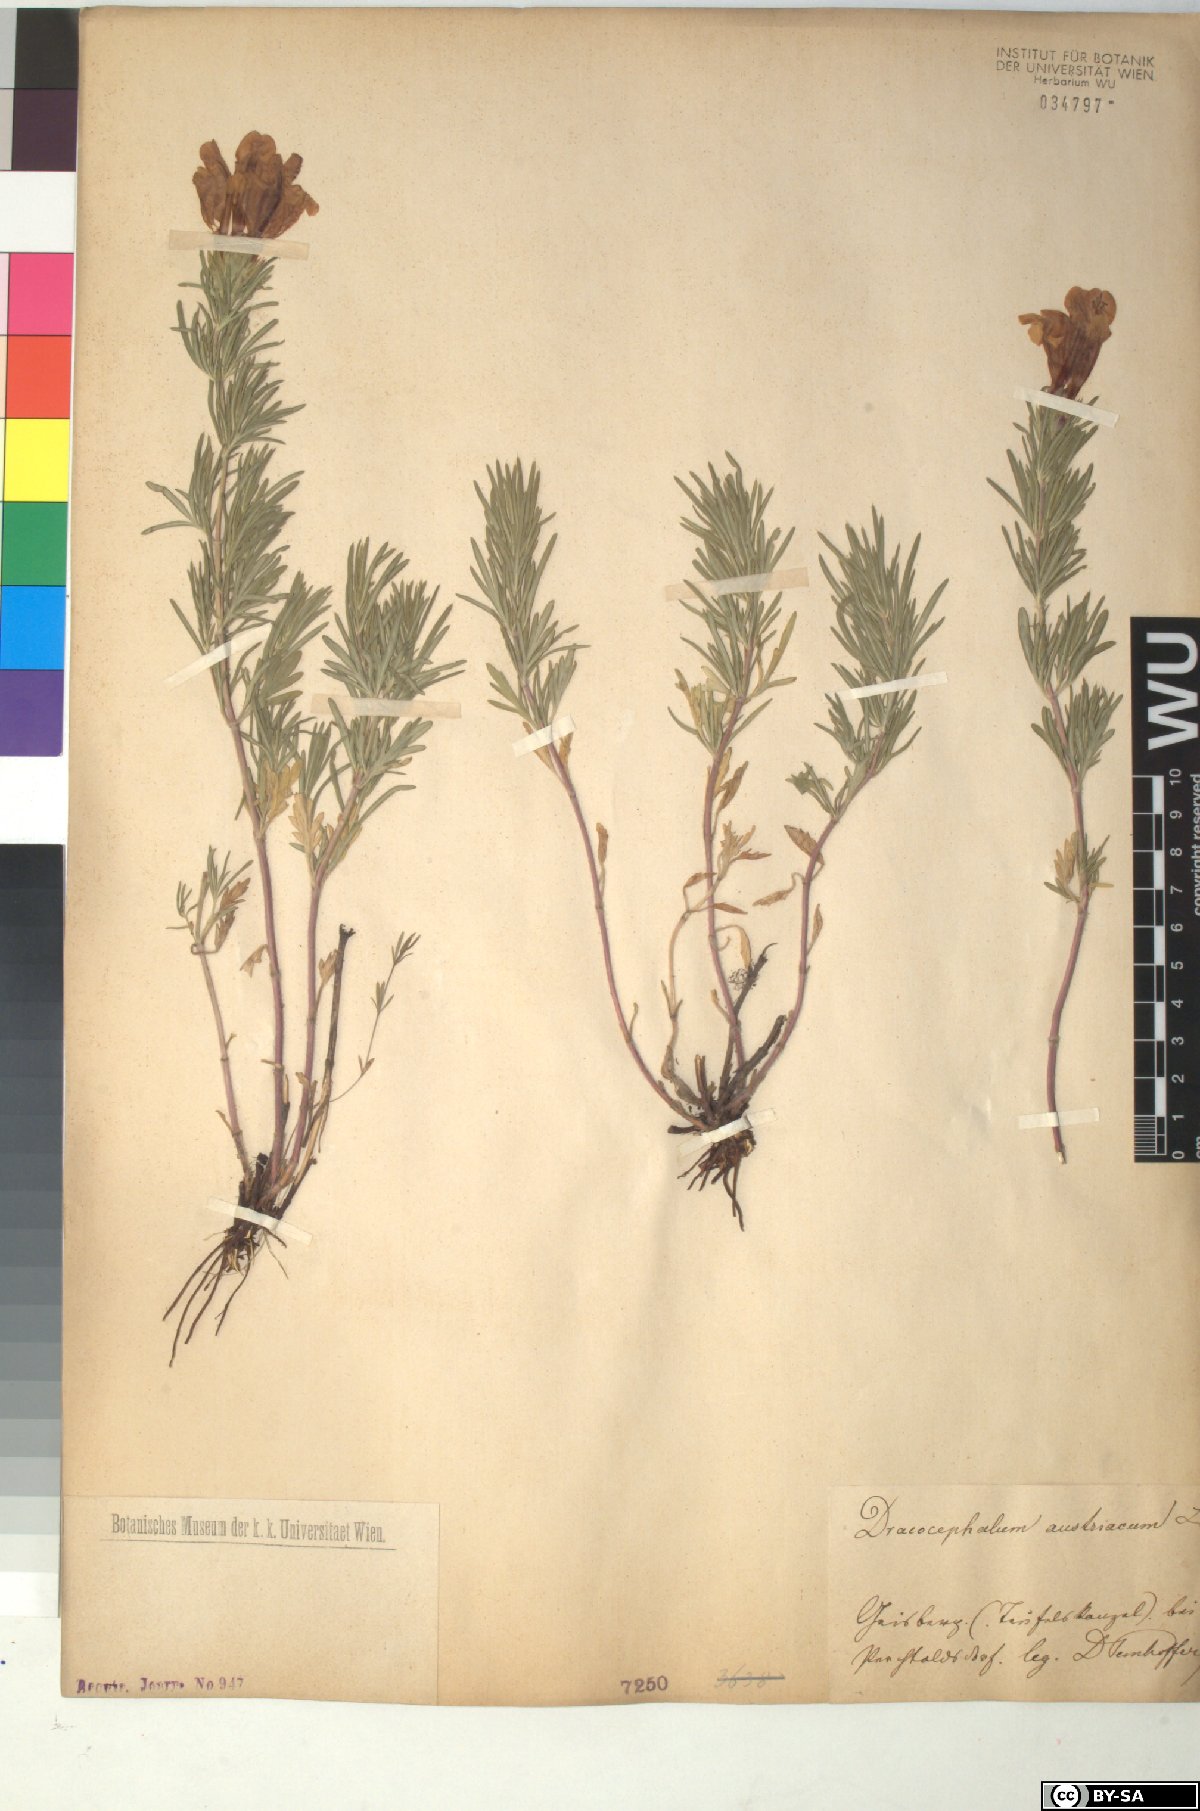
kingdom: Plantae
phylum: Tracheophyta
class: Magnoliopsida
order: Lamiales
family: Lamiaceae
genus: Dracocephalum
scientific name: Dracocephalum austriacum
